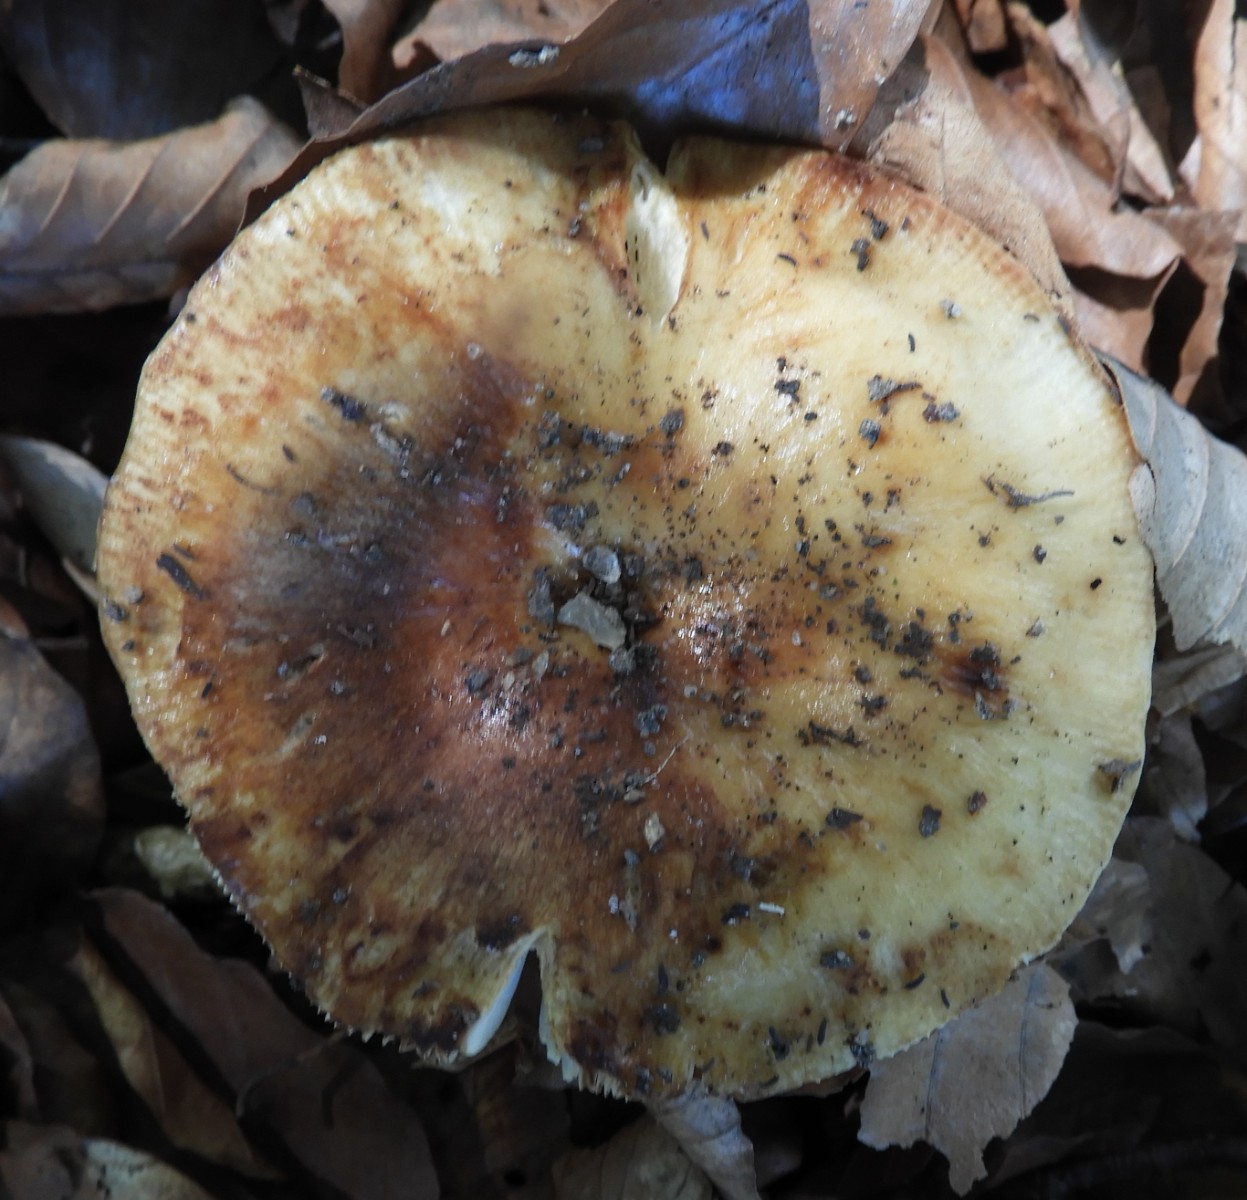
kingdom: Fungi
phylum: Basidiomycota
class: Agaricomycetes
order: Russulales
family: Russulaceae
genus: Russula
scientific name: Russula grata
